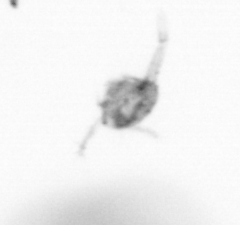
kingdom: Animalia
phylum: Arthropoda
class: Copepoda
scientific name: Copepoda
